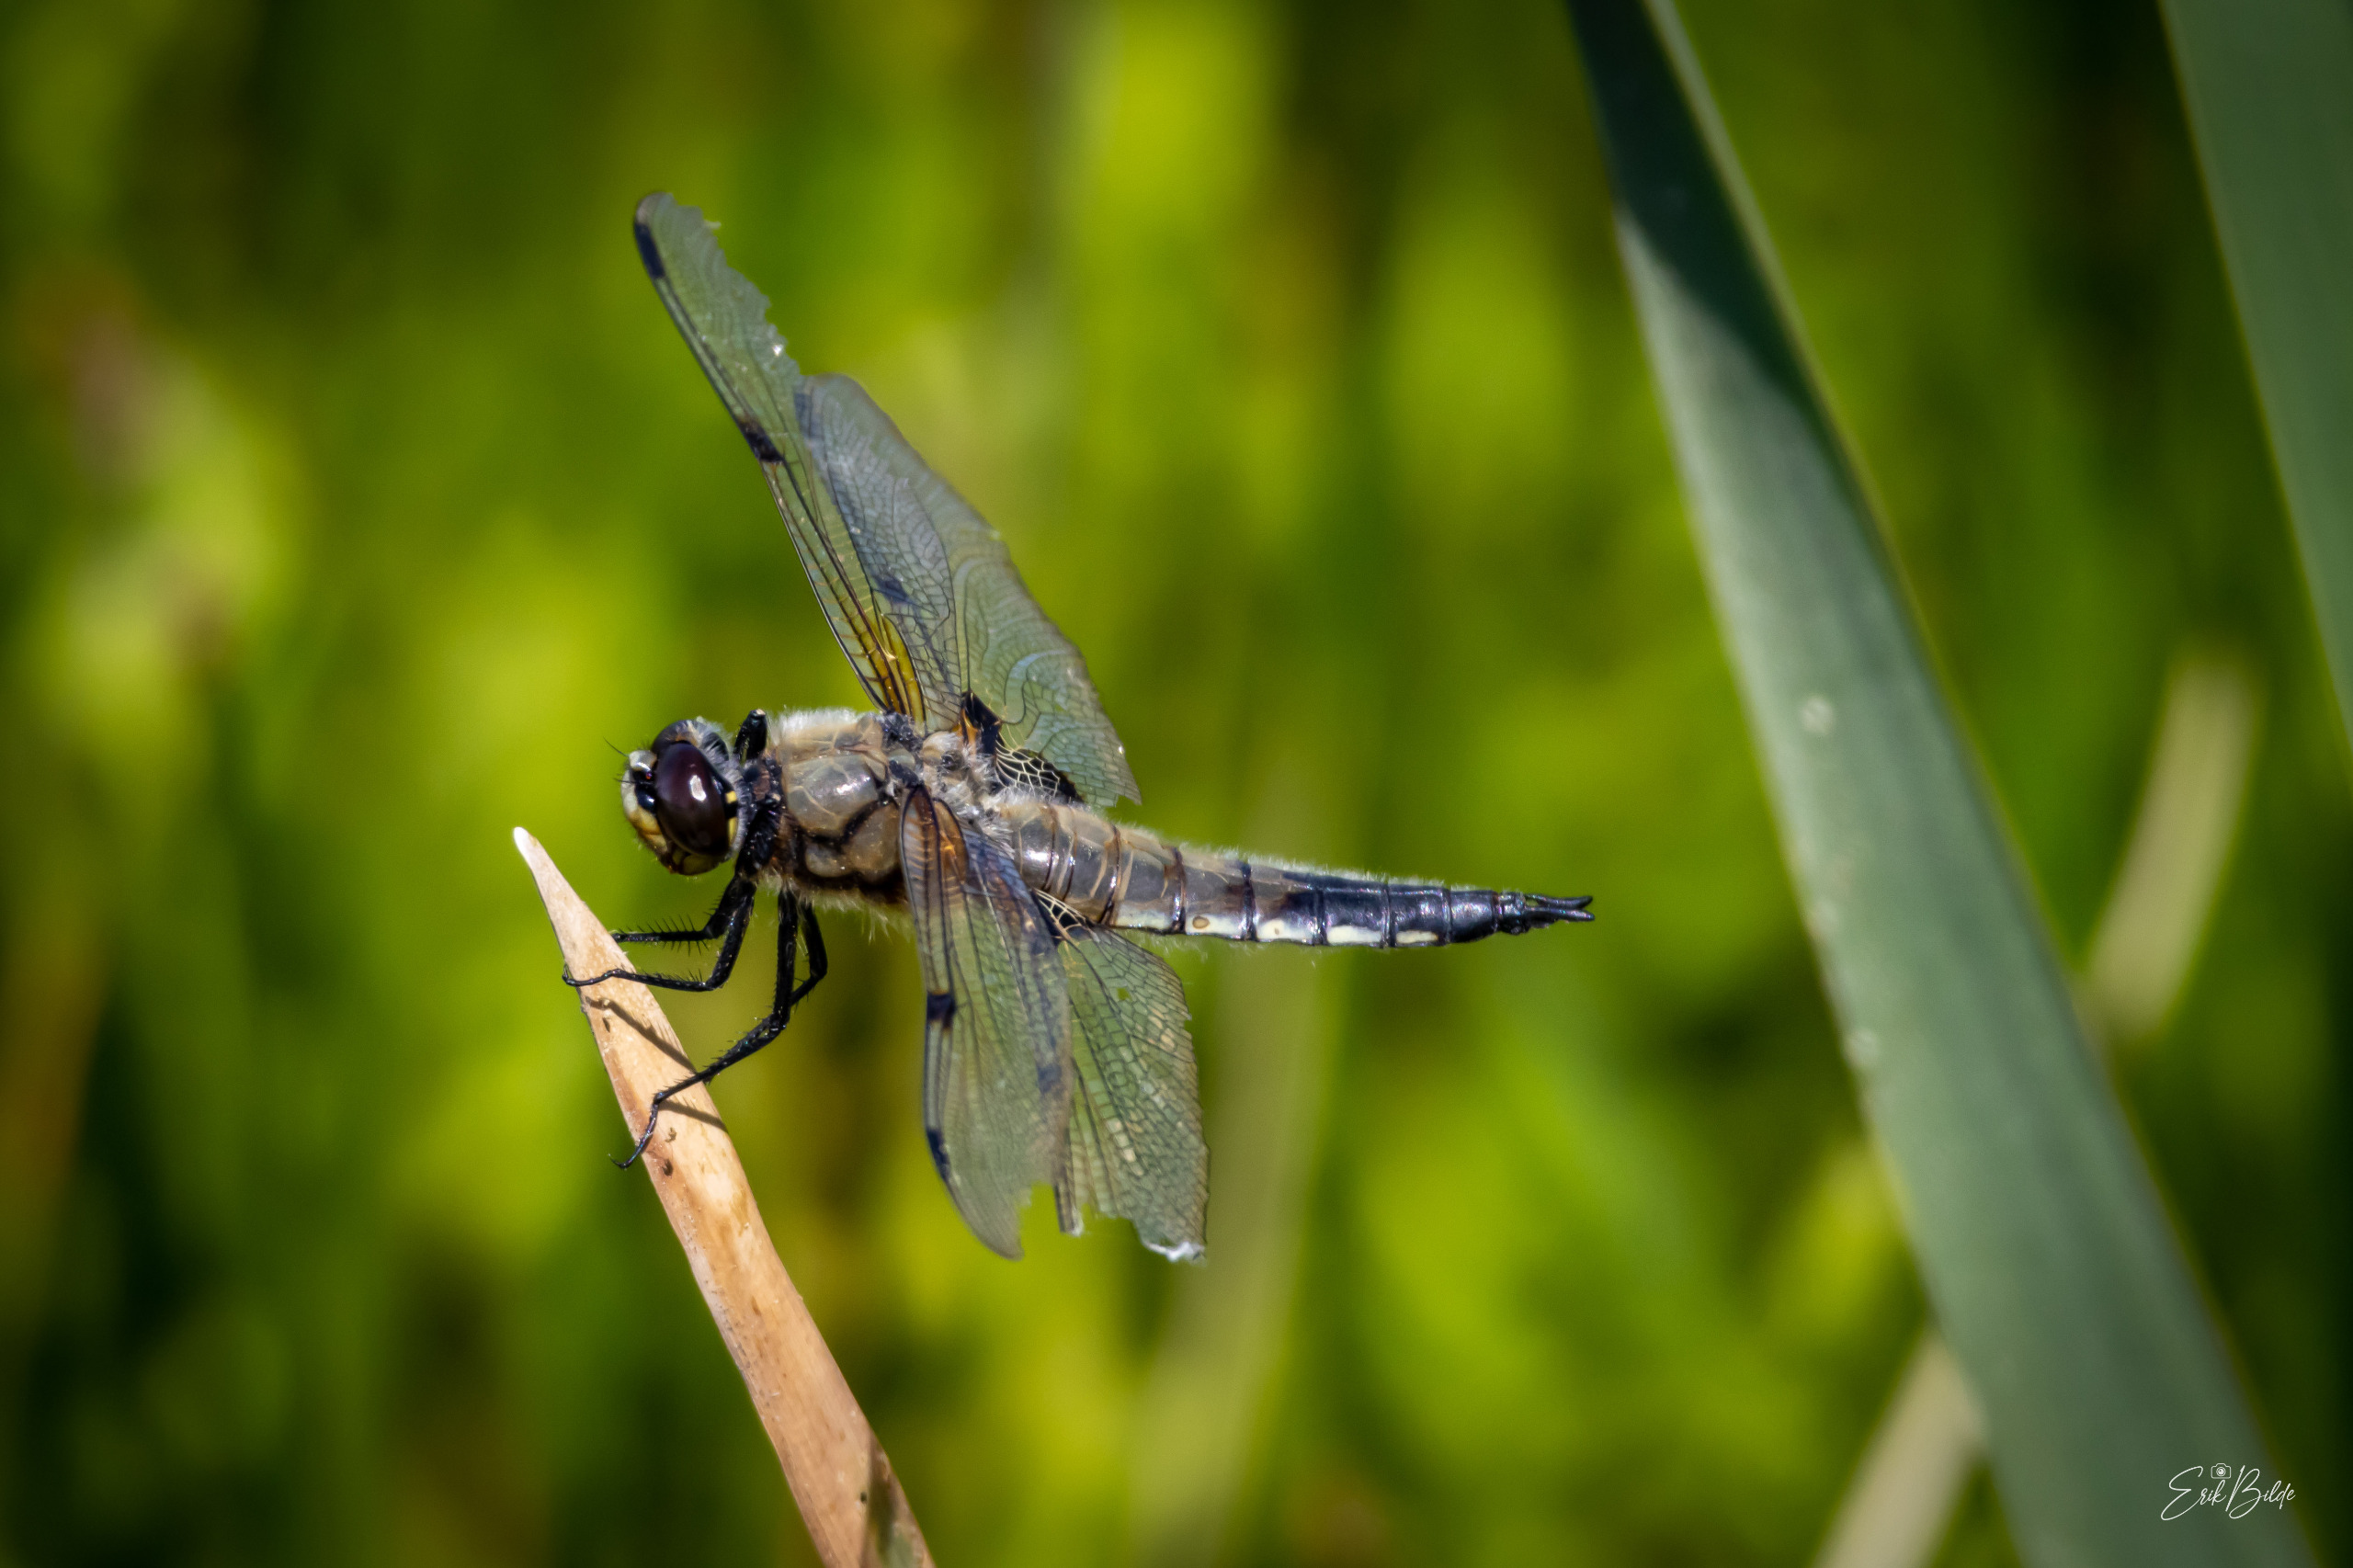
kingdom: Animalia
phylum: Arthropoda
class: Insecta
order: Odonata
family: Libellulidae
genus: Libellula
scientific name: Libellula quadrimaculata
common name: Fireplettet libel
